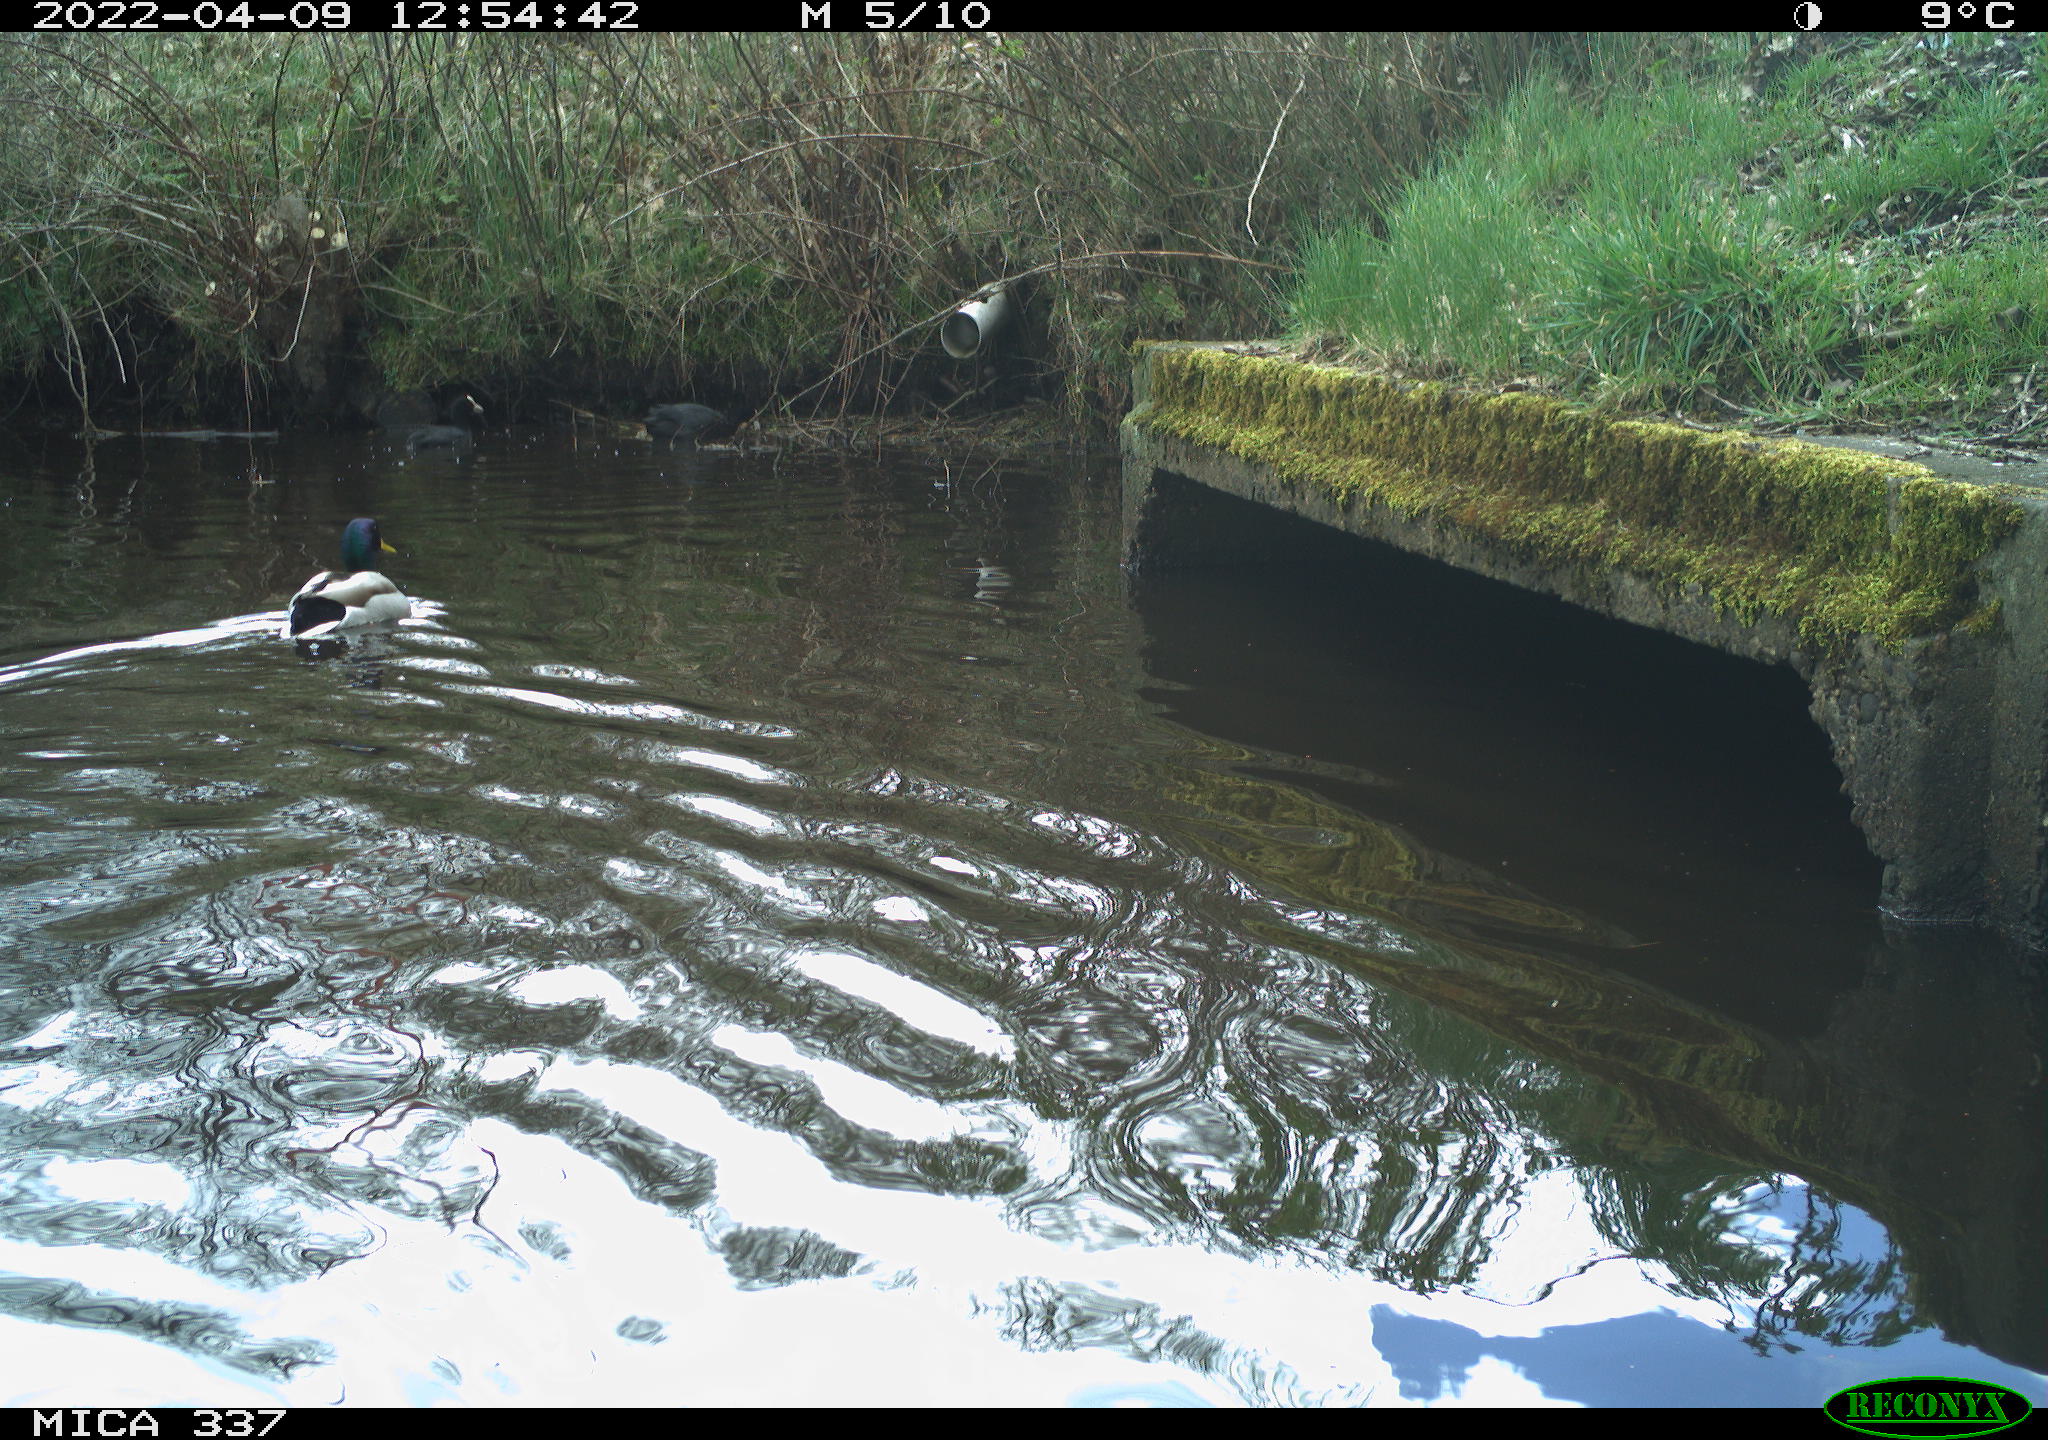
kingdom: Animalia
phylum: Chordata
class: Aves
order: Anseriformes
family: Anatidae
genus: Anas
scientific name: Anas platyrhynchos
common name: Mallard
